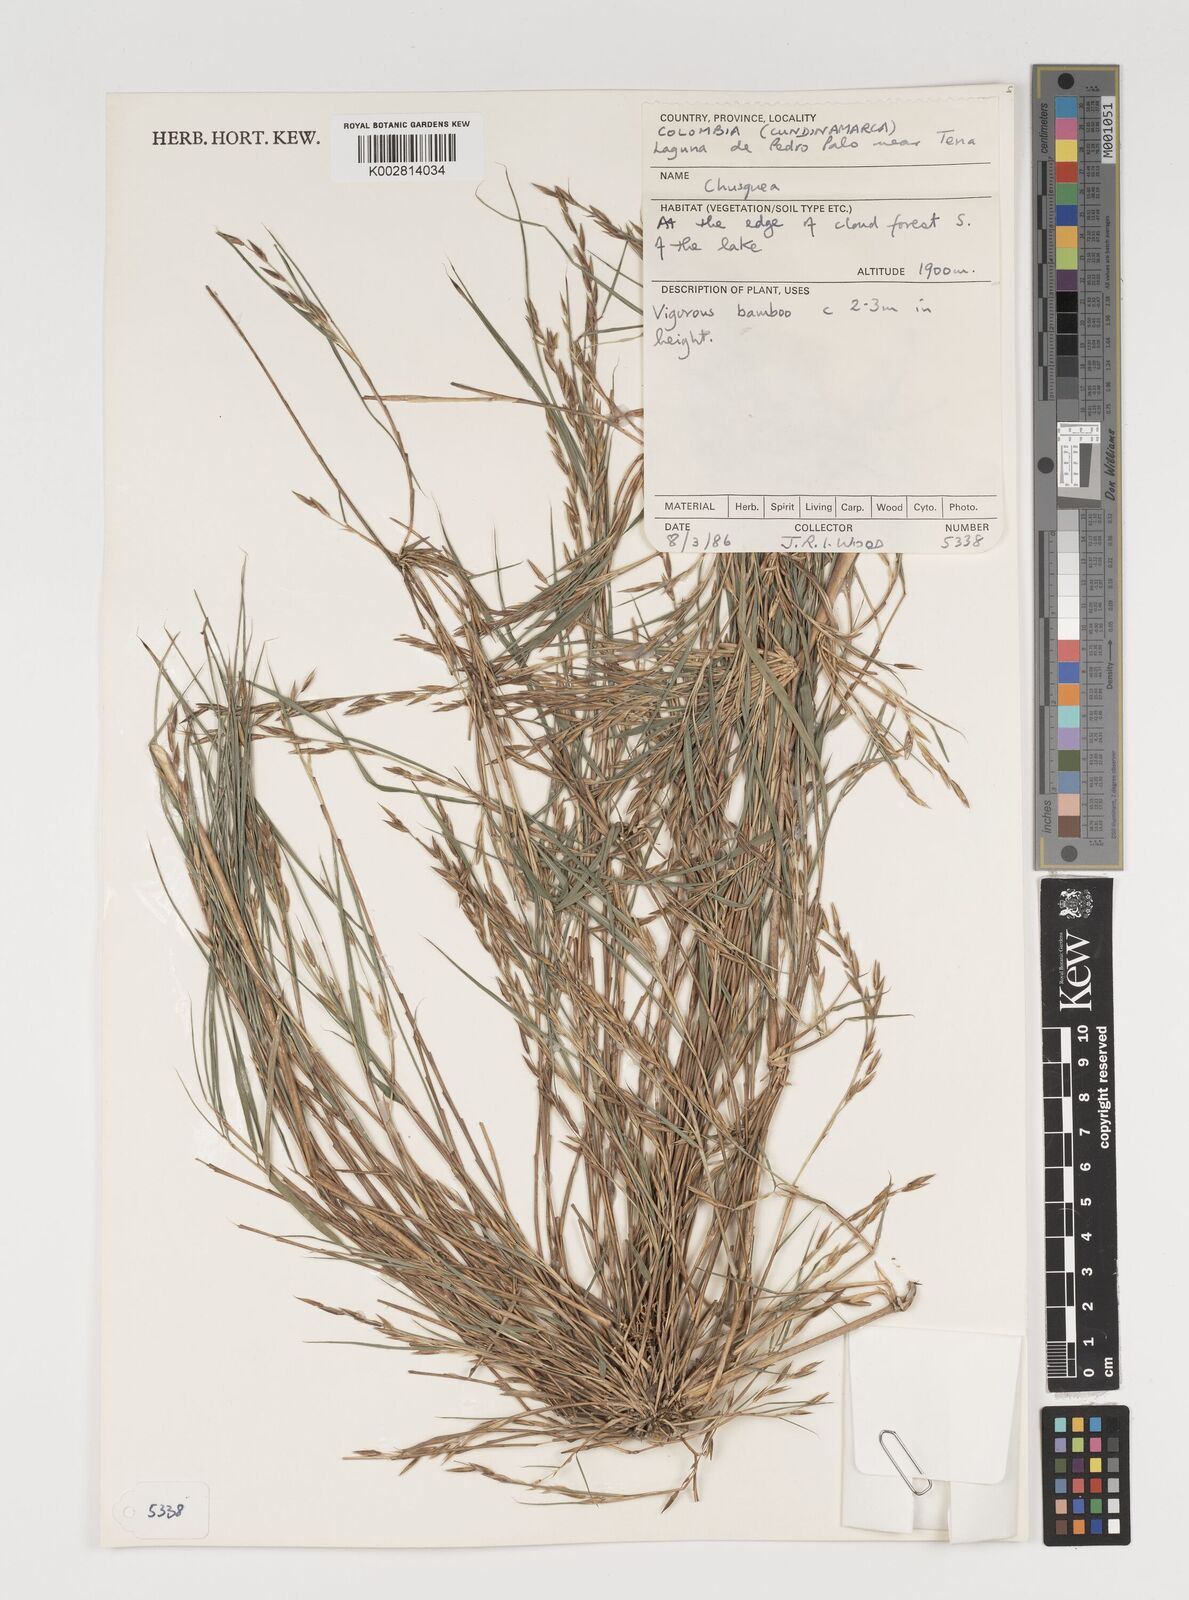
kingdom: Plantae
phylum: Tracheophyta
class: Liliopsida
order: Poales
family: Poaceae
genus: Chusquea
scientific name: Chusquea
